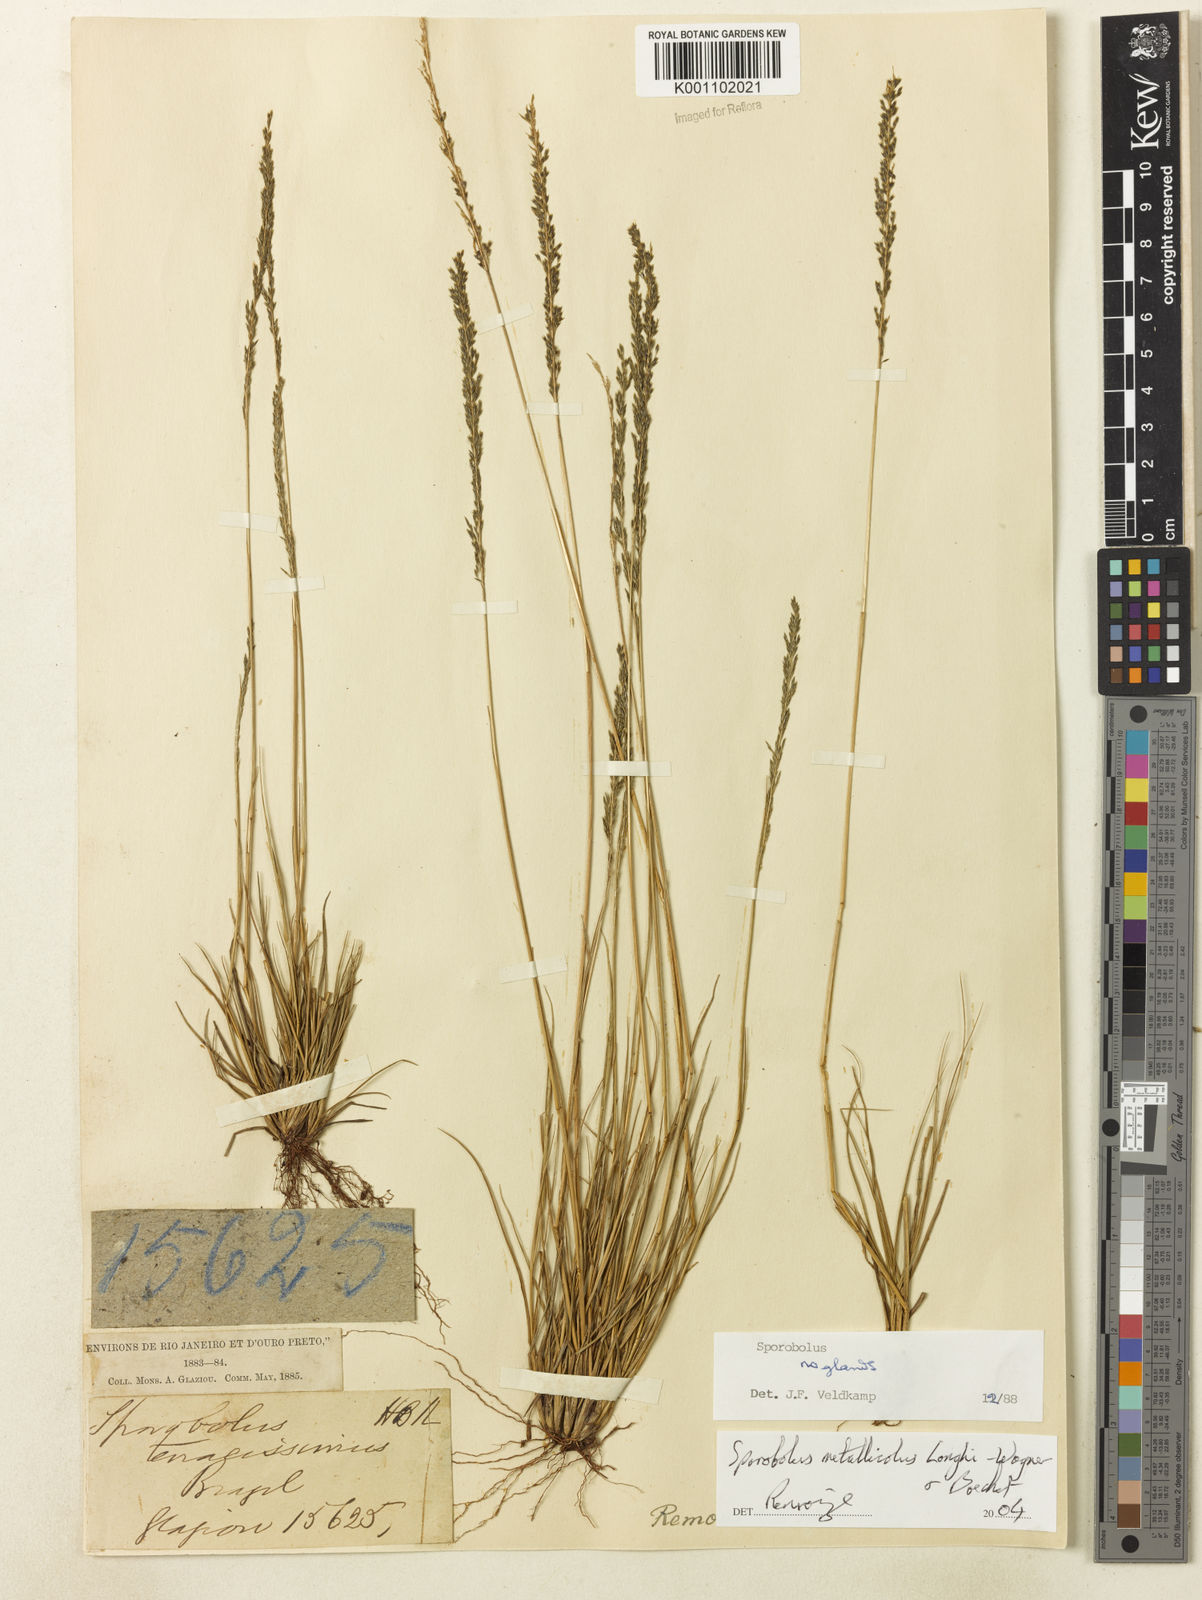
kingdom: Plantae
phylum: Tracheophyta
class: Liliopsida
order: Poales
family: Poaceae
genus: Sporobolus
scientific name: Sporobolus metallicola
